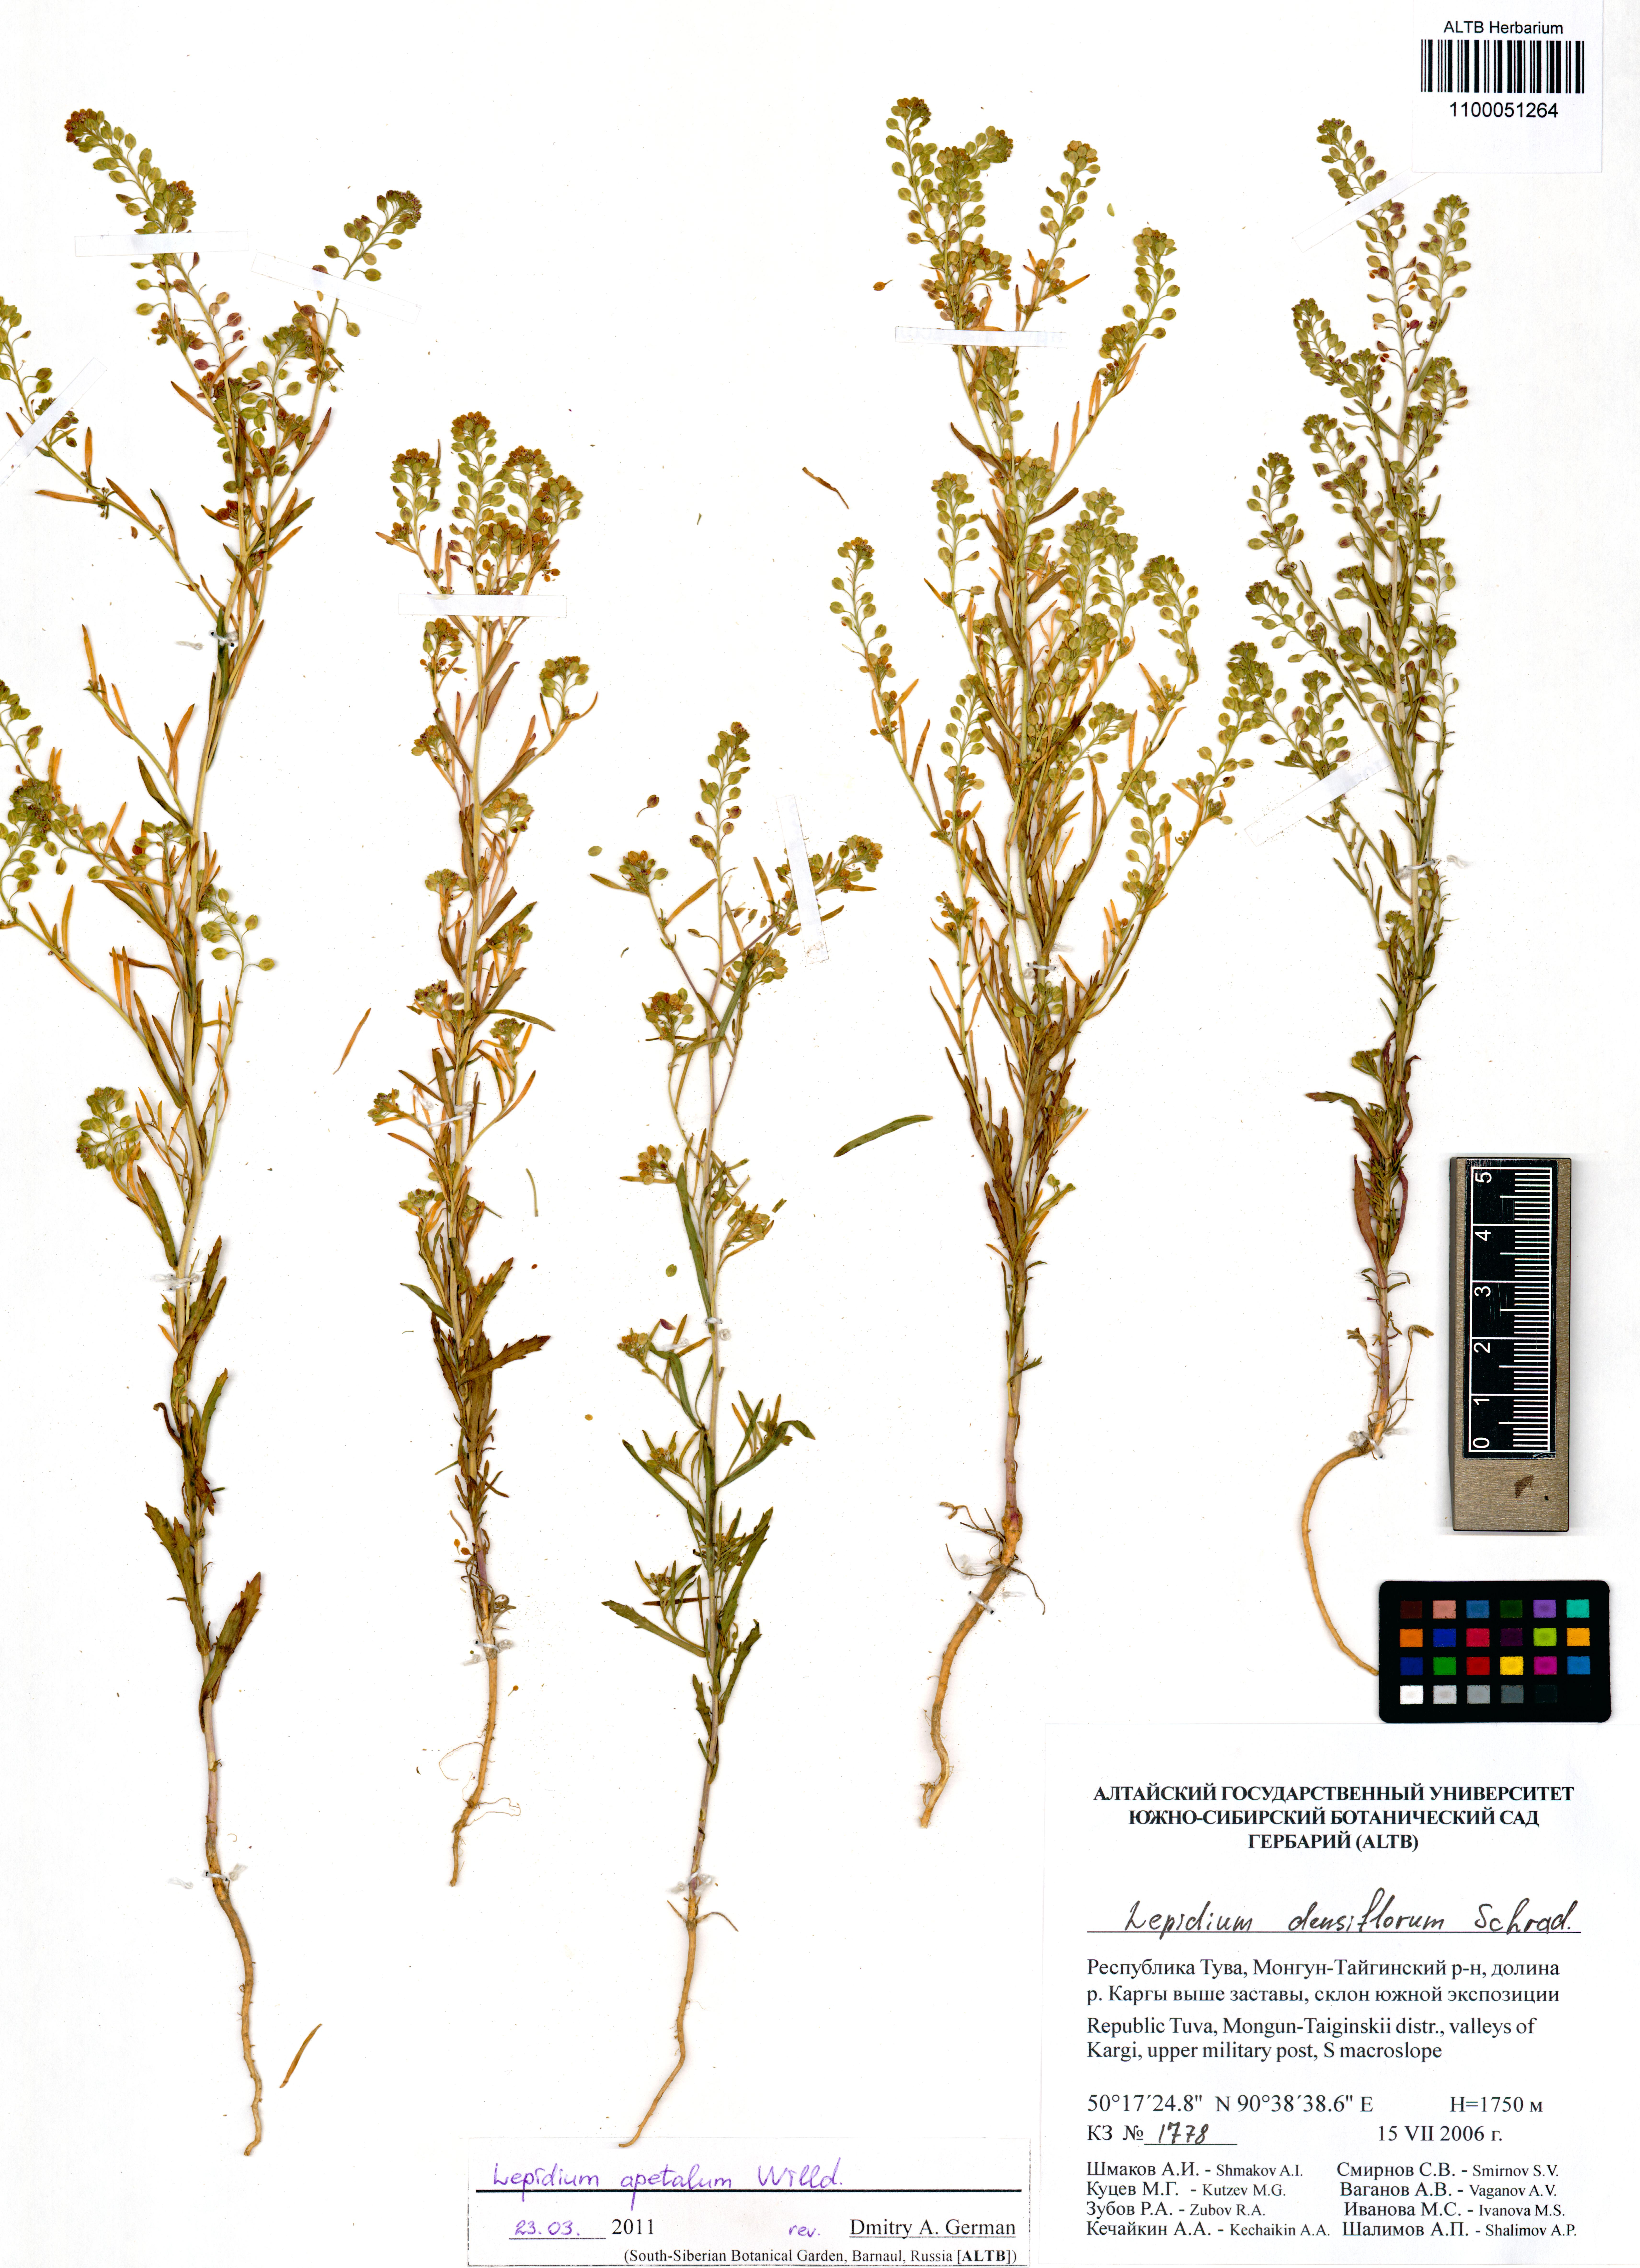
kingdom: Plantae
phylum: Tracheophyta
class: Magnoliopsida
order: Brassicales
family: Brassicaceae
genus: Lepidium
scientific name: Lepidium apetalum
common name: Pepperweed
